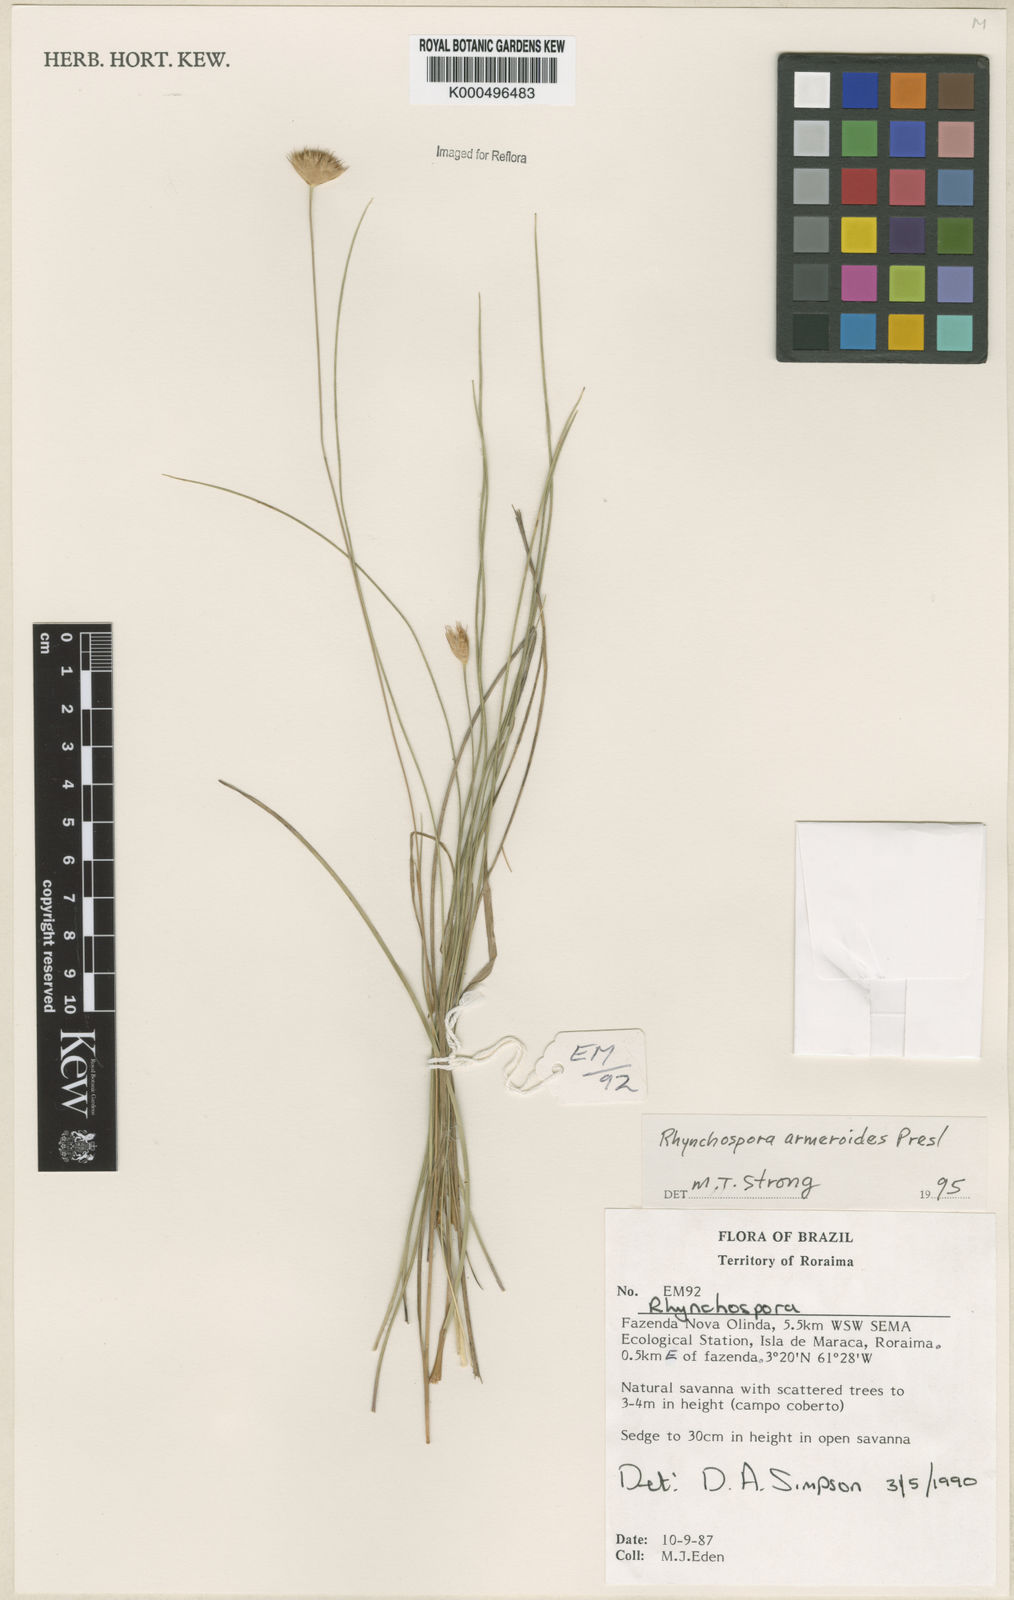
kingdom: Plantae
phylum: Tracheophyta
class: Liliopsida
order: Poales
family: Cyperaceae
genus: Rhynchospora
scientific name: Rhynchospora armerioides
